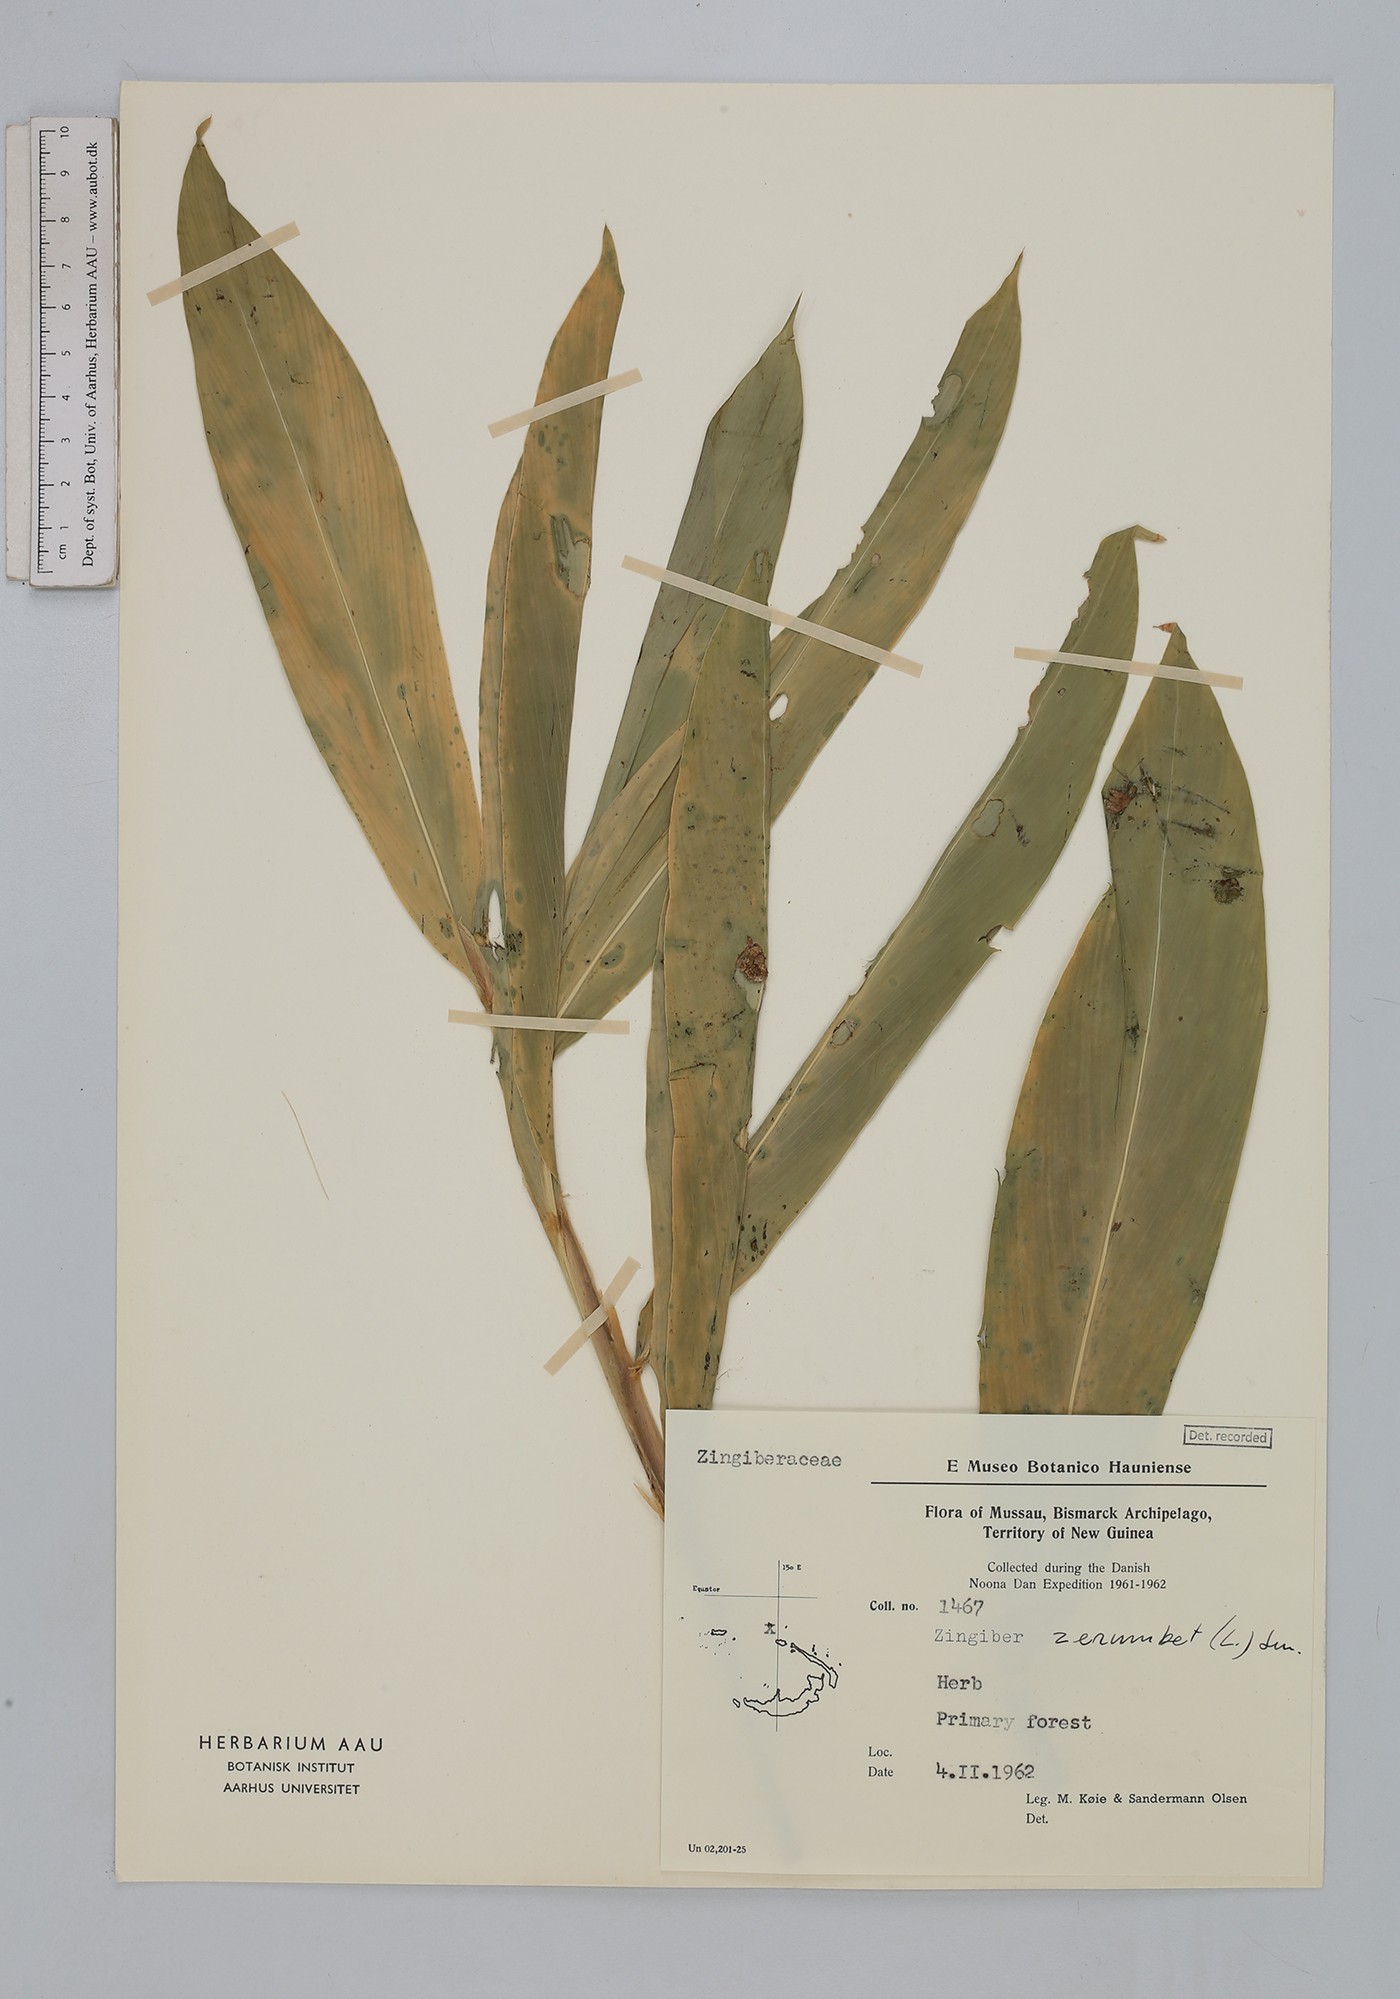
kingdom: Plantae
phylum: Tracheophyta
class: Liliopsida
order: Zingiberales
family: Zingiberaceae
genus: Zingiber
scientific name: Zingiber zerumbet
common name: Bitter ginger
